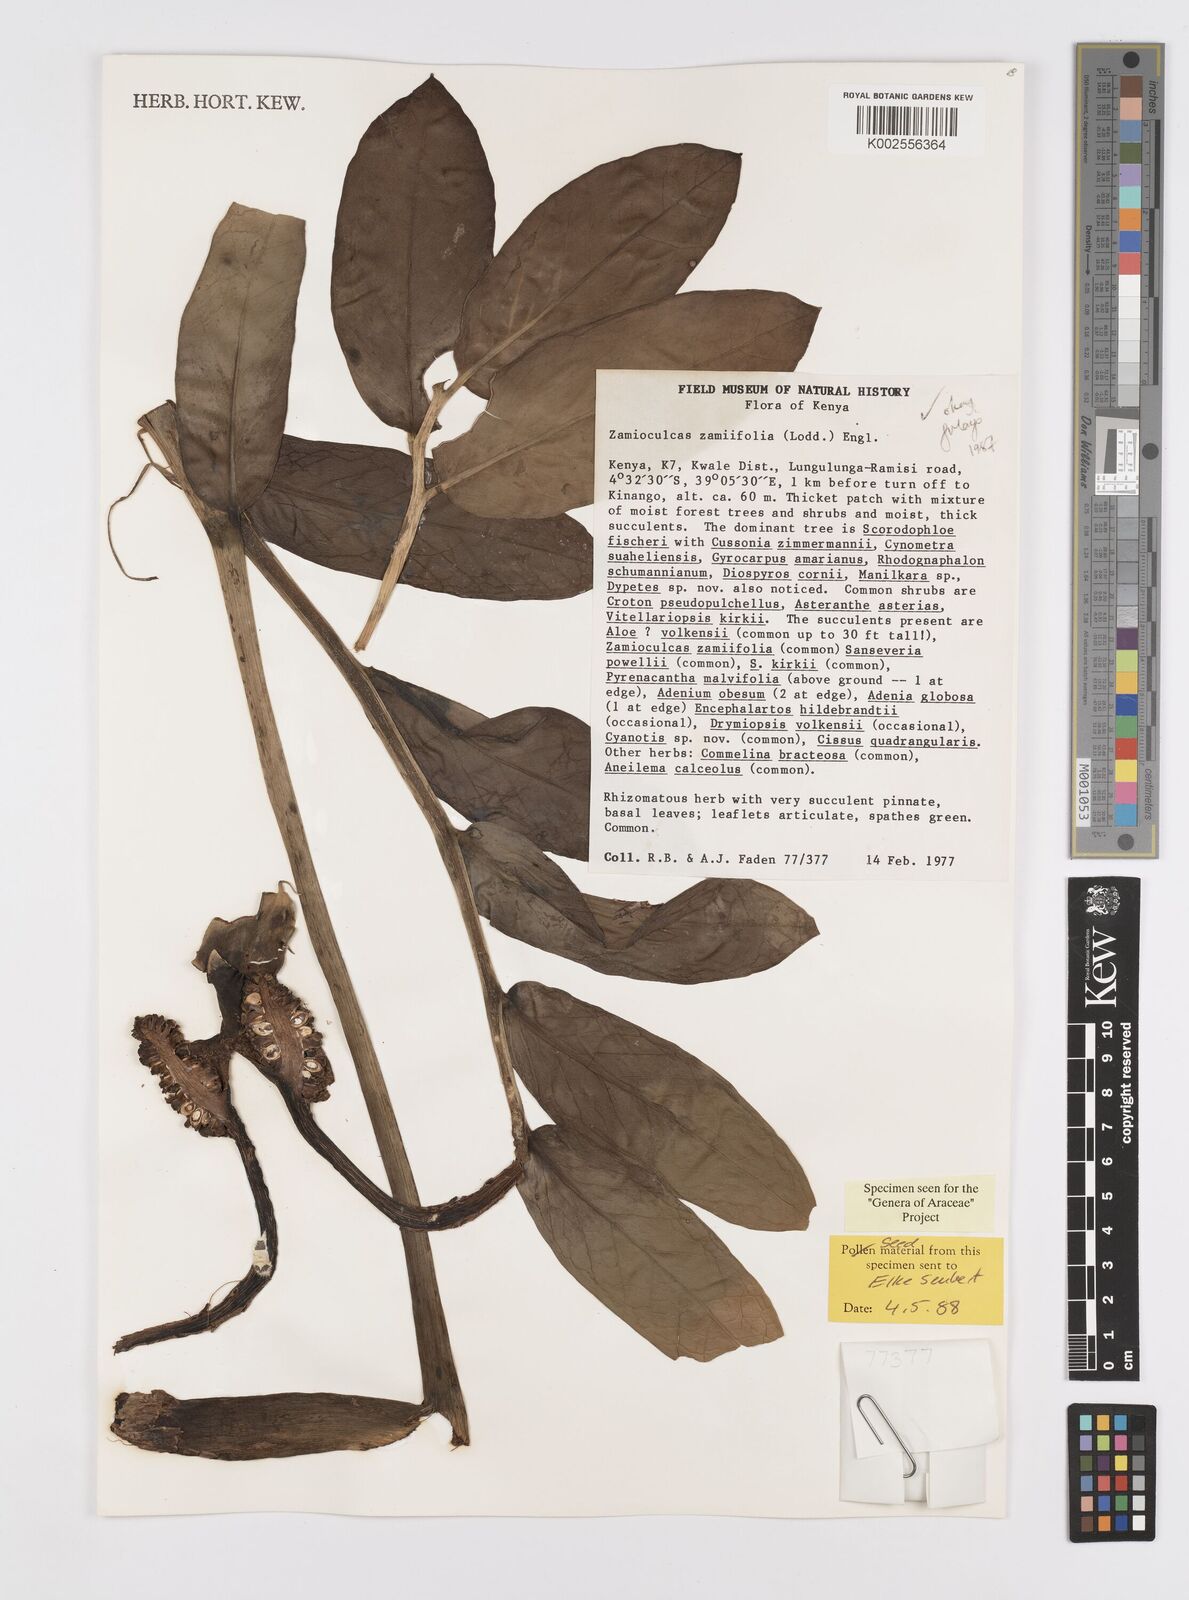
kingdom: Plantae
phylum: Tracheophyta
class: Liliopsida
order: Alismatales
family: Araceae
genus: Zamioculcas
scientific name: Zamioculcas zamiifolia
